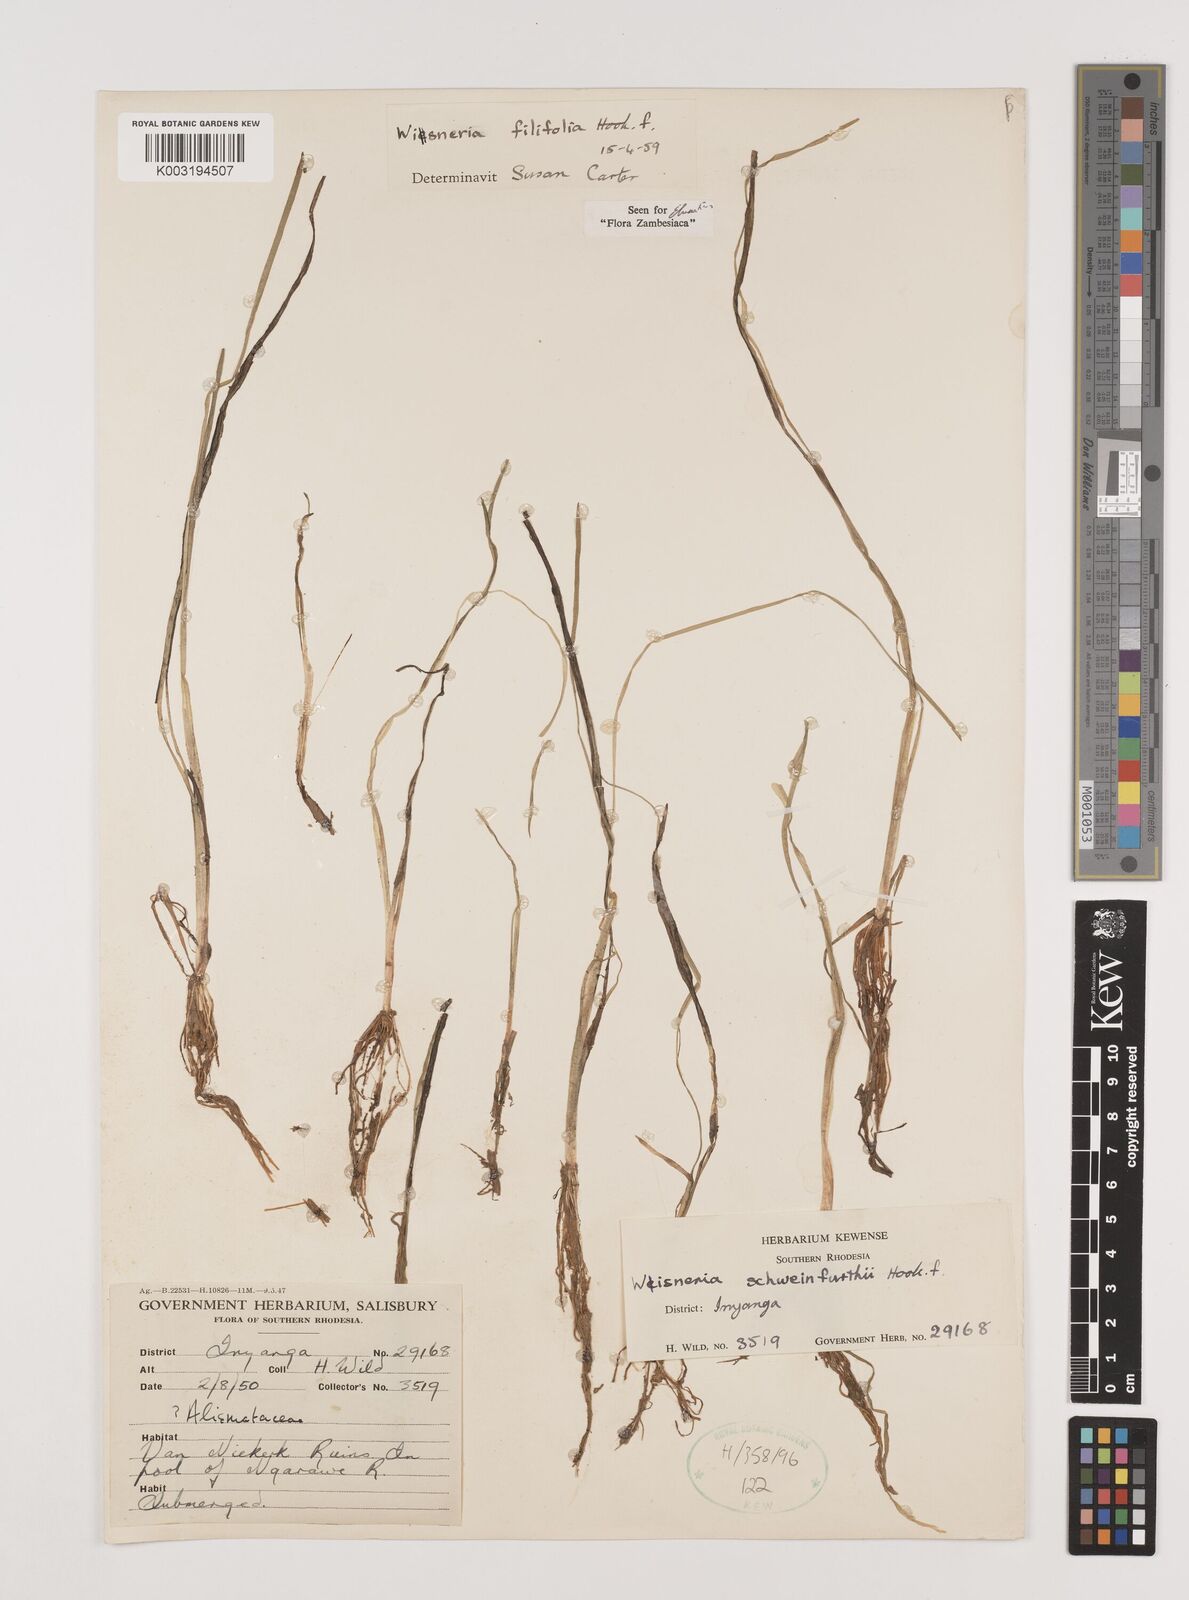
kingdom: Plantae
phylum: Tracheophyta
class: Liliopsida
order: Alismatales
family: Alismataceae
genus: Wiesneria
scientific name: Wiesneria filifolia
